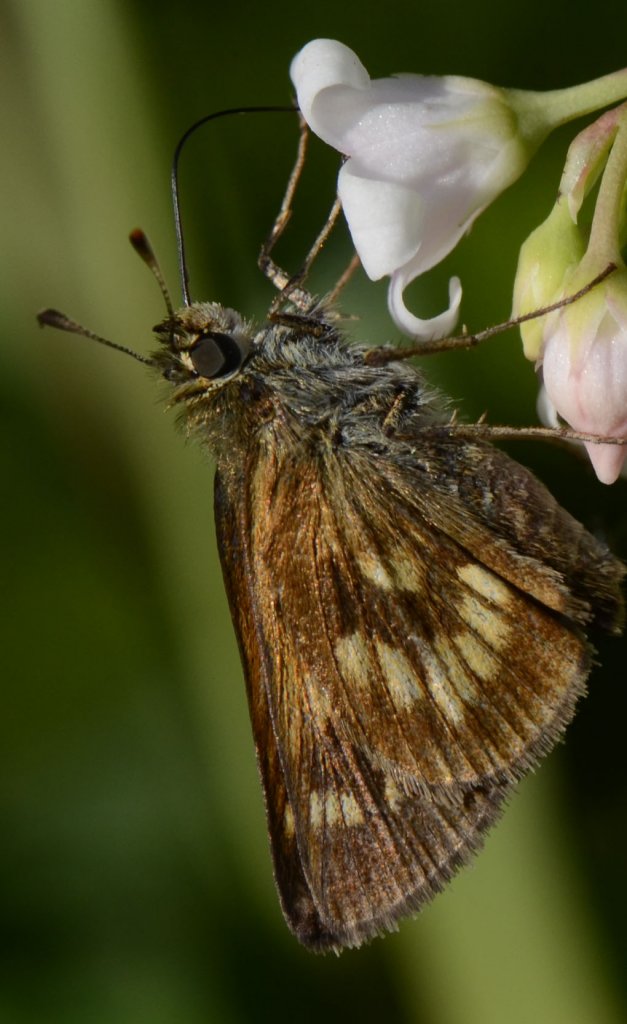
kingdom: Animalia
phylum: Arthropoda
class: Insecta
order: Lepidoptera
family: Hesperiidae
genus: Polites
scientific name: Polites
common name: Long Dash Skipper
